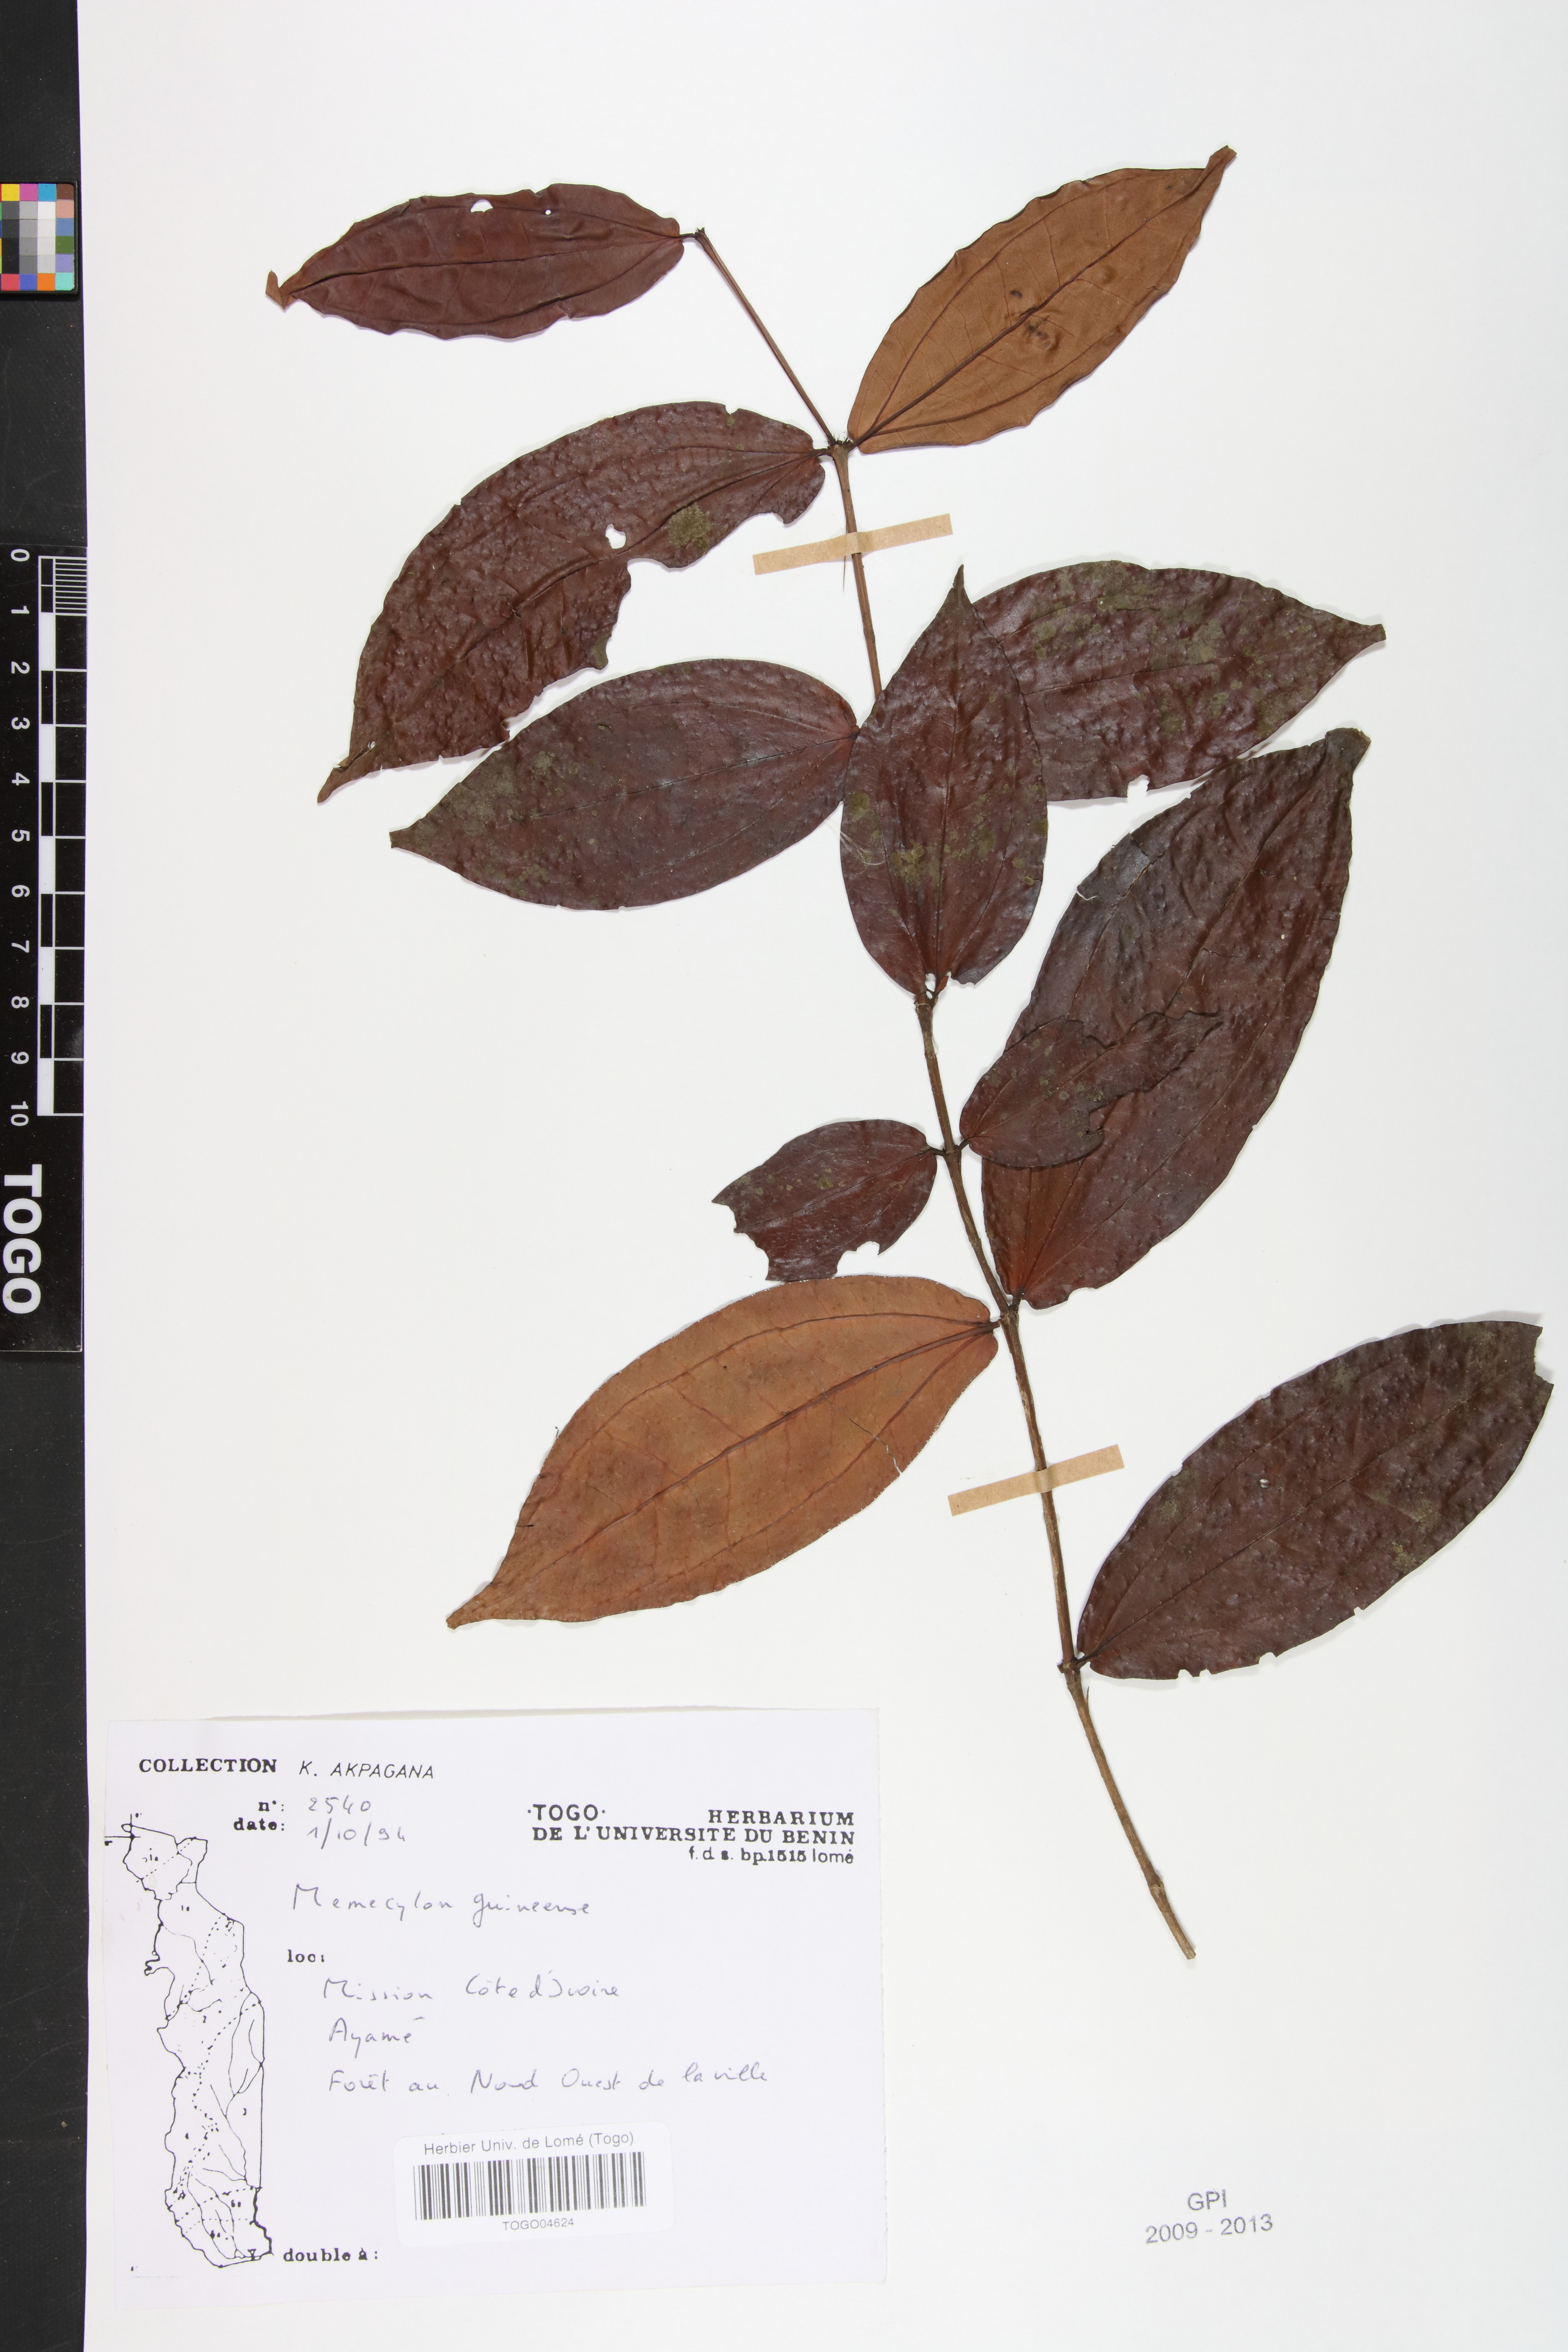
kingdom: Plantae
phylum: Tracheophyta
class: Magnoliopsida
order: Myrtales
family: Melastomataceae
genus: Memecylon
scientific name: Memecylon afzelii
